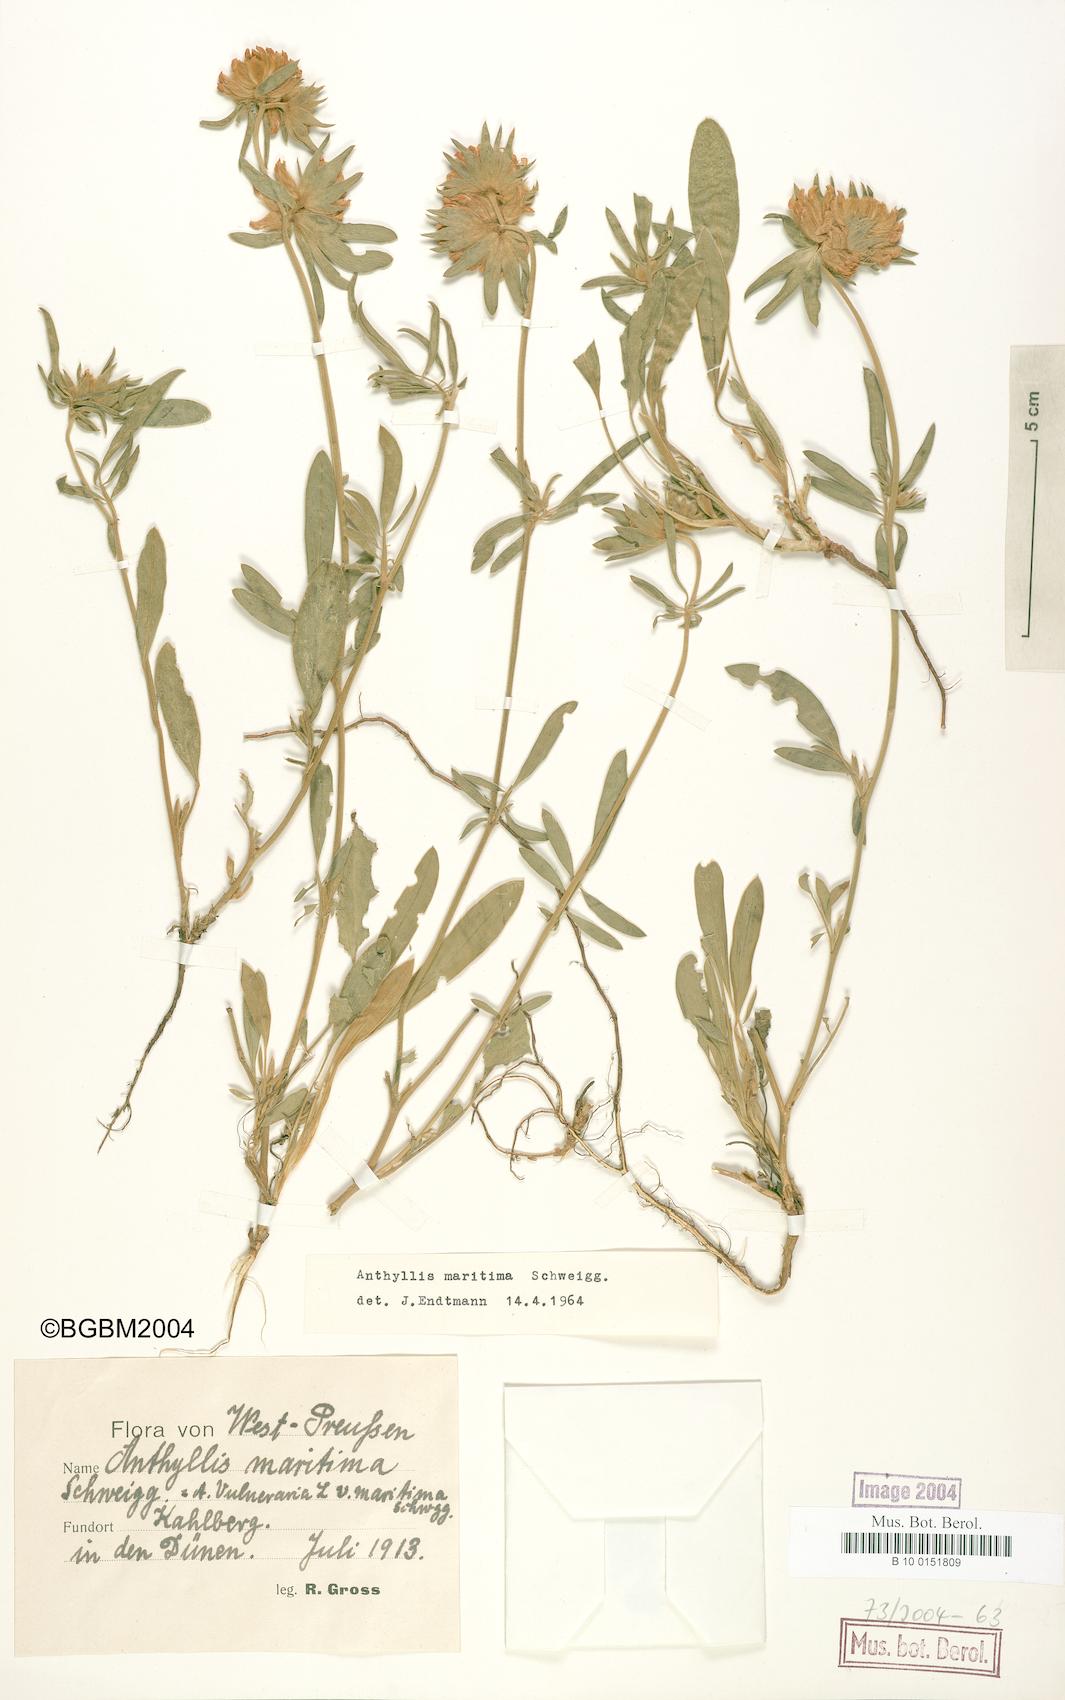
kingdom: Plantae
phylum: Tracheophyta
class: Magnoliopsida
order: Fabales
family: Fabaceae
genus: Anthyllis
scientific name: Anthyllis vulneraria
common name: Kidney vetch
